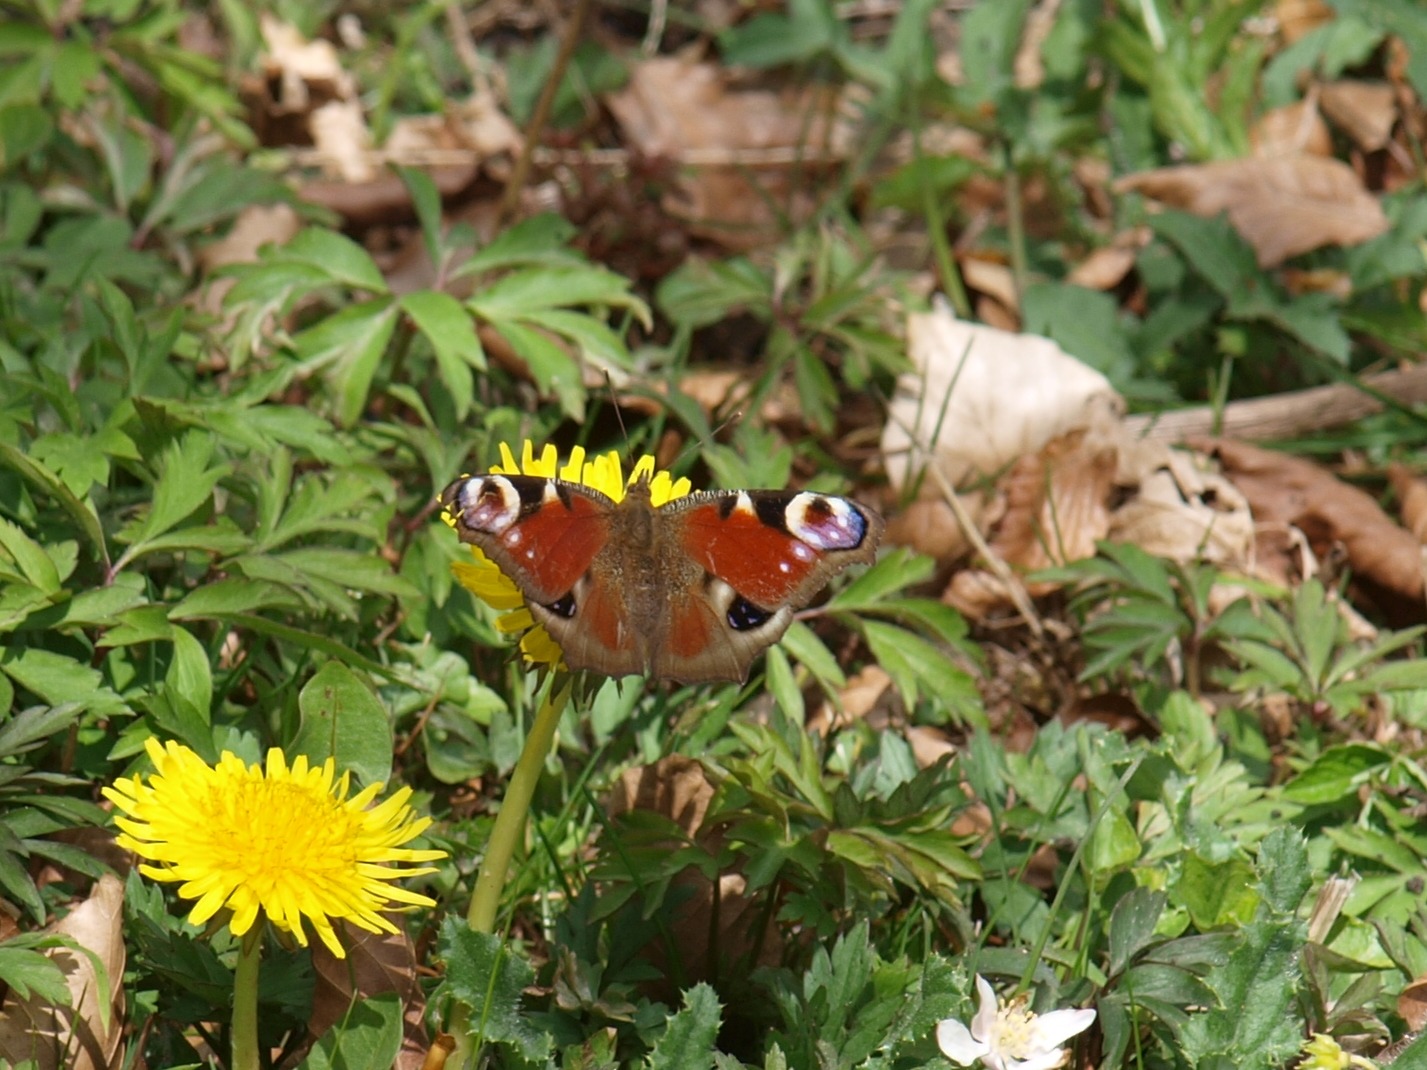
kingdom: Animalia
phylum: Arthropoda
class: Insecta
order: Lepidoptera
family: Nymphalidae
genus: Aglais
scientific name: Aglais io
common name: Dagpåfugleøje
